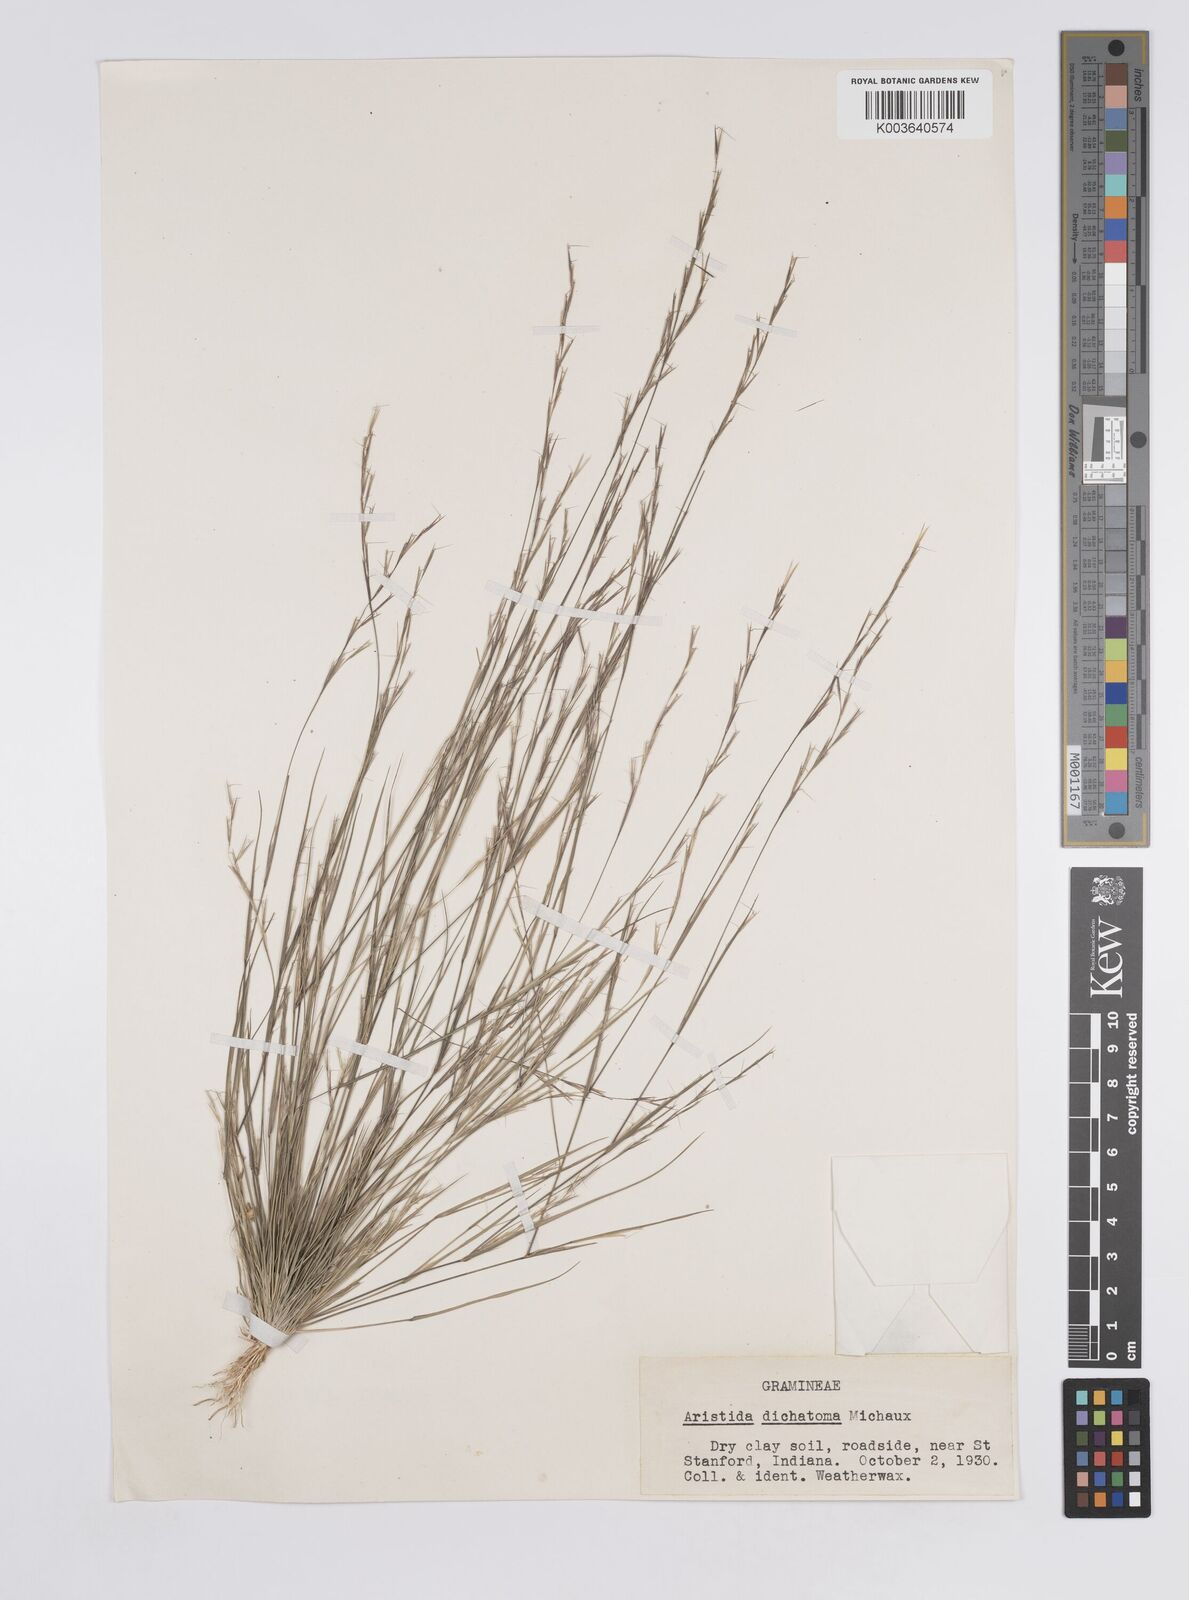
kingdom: Plantae
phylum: Tracheophyta
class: Liliopsida
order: Poales
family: Poaceae
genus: Aristida
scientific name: Aristida dichotoma
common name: Churchmouse three-awn
